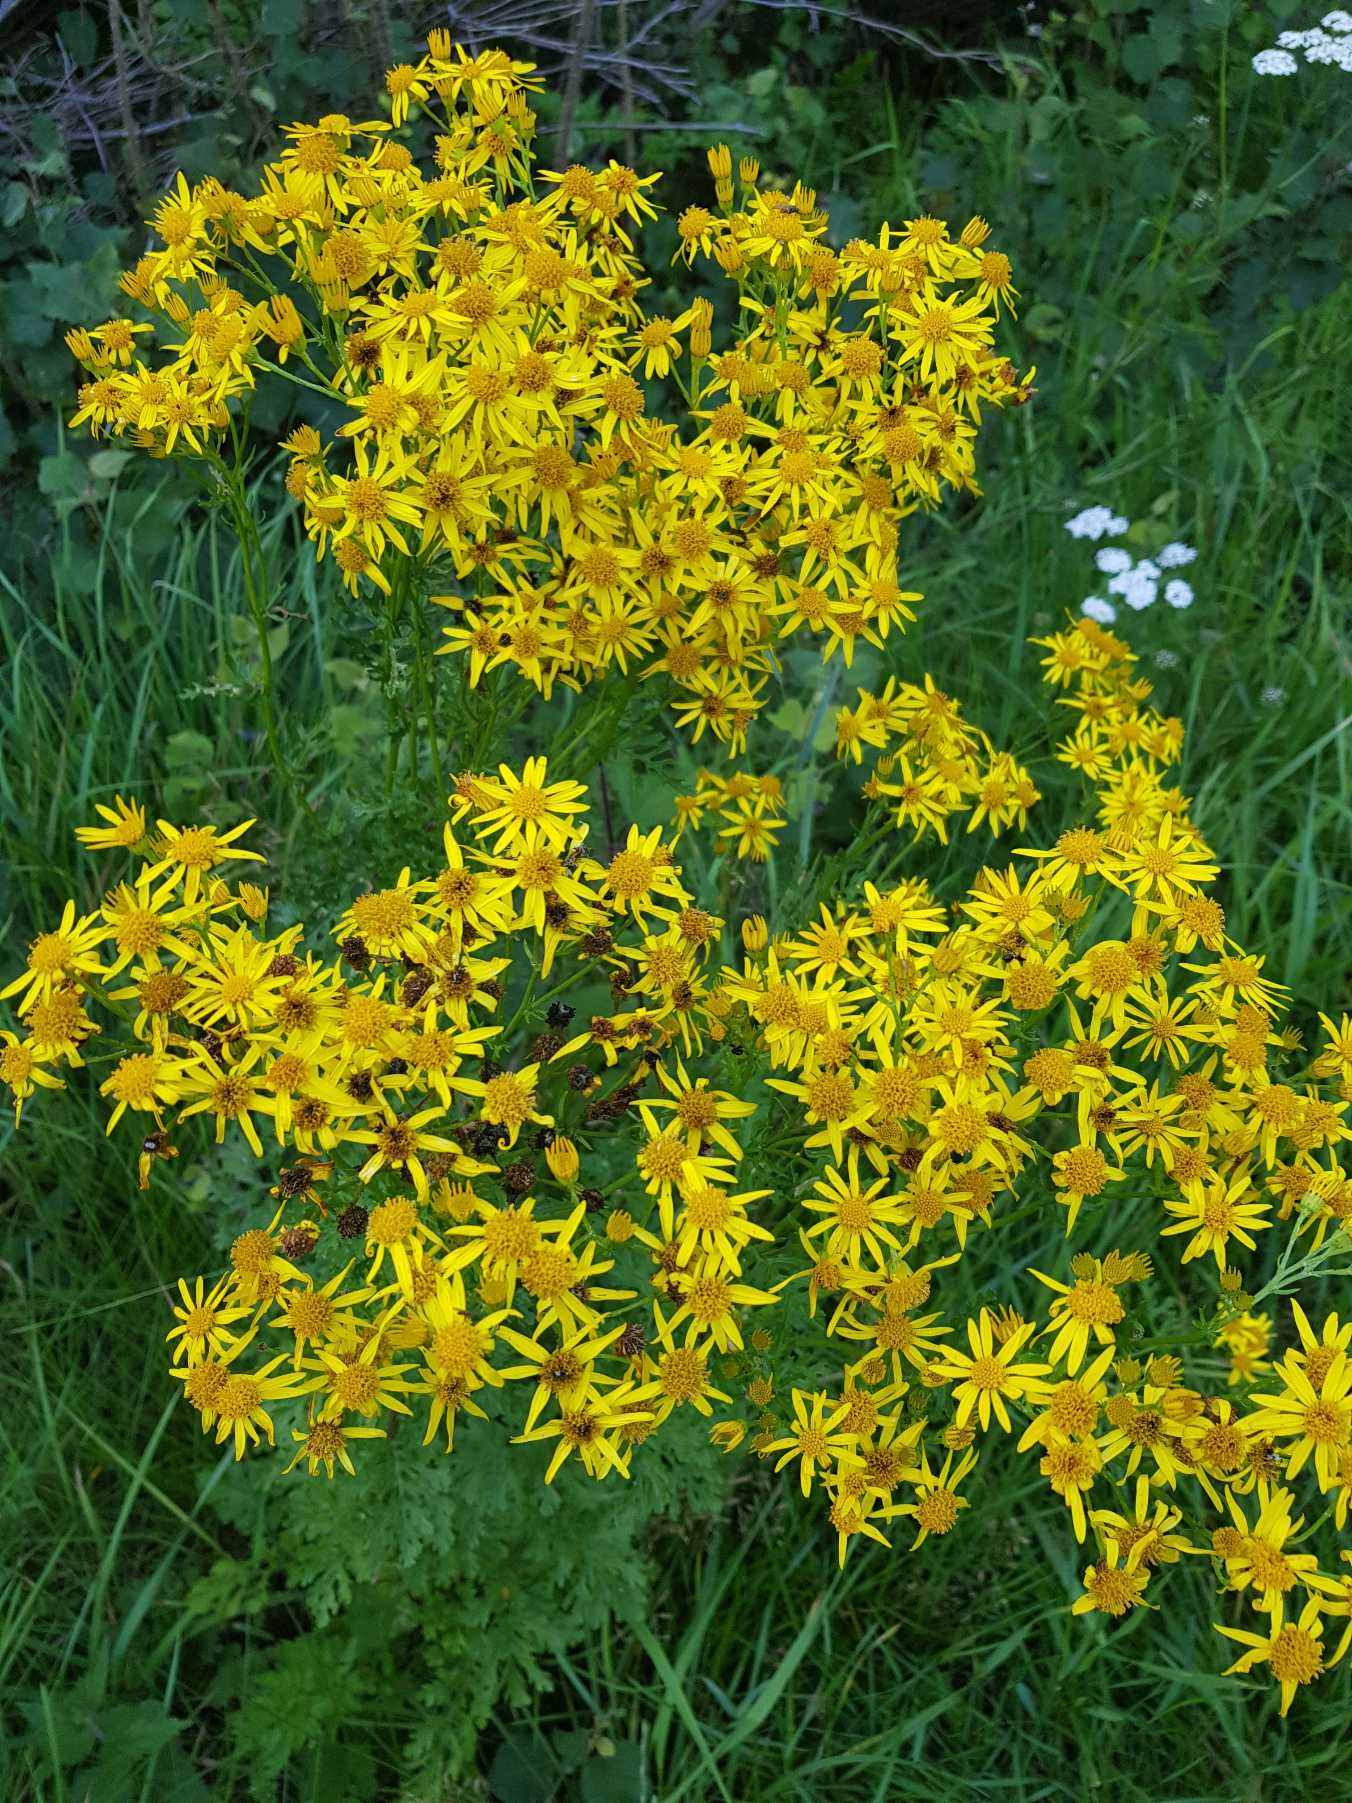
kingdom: Plantae
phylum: Tracheophyta
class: Magnoliopsida
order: Asterales
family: Asteraceae
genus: Jacobaea
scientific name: Jacobaea vulgaris
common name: Eng-brandbæger
